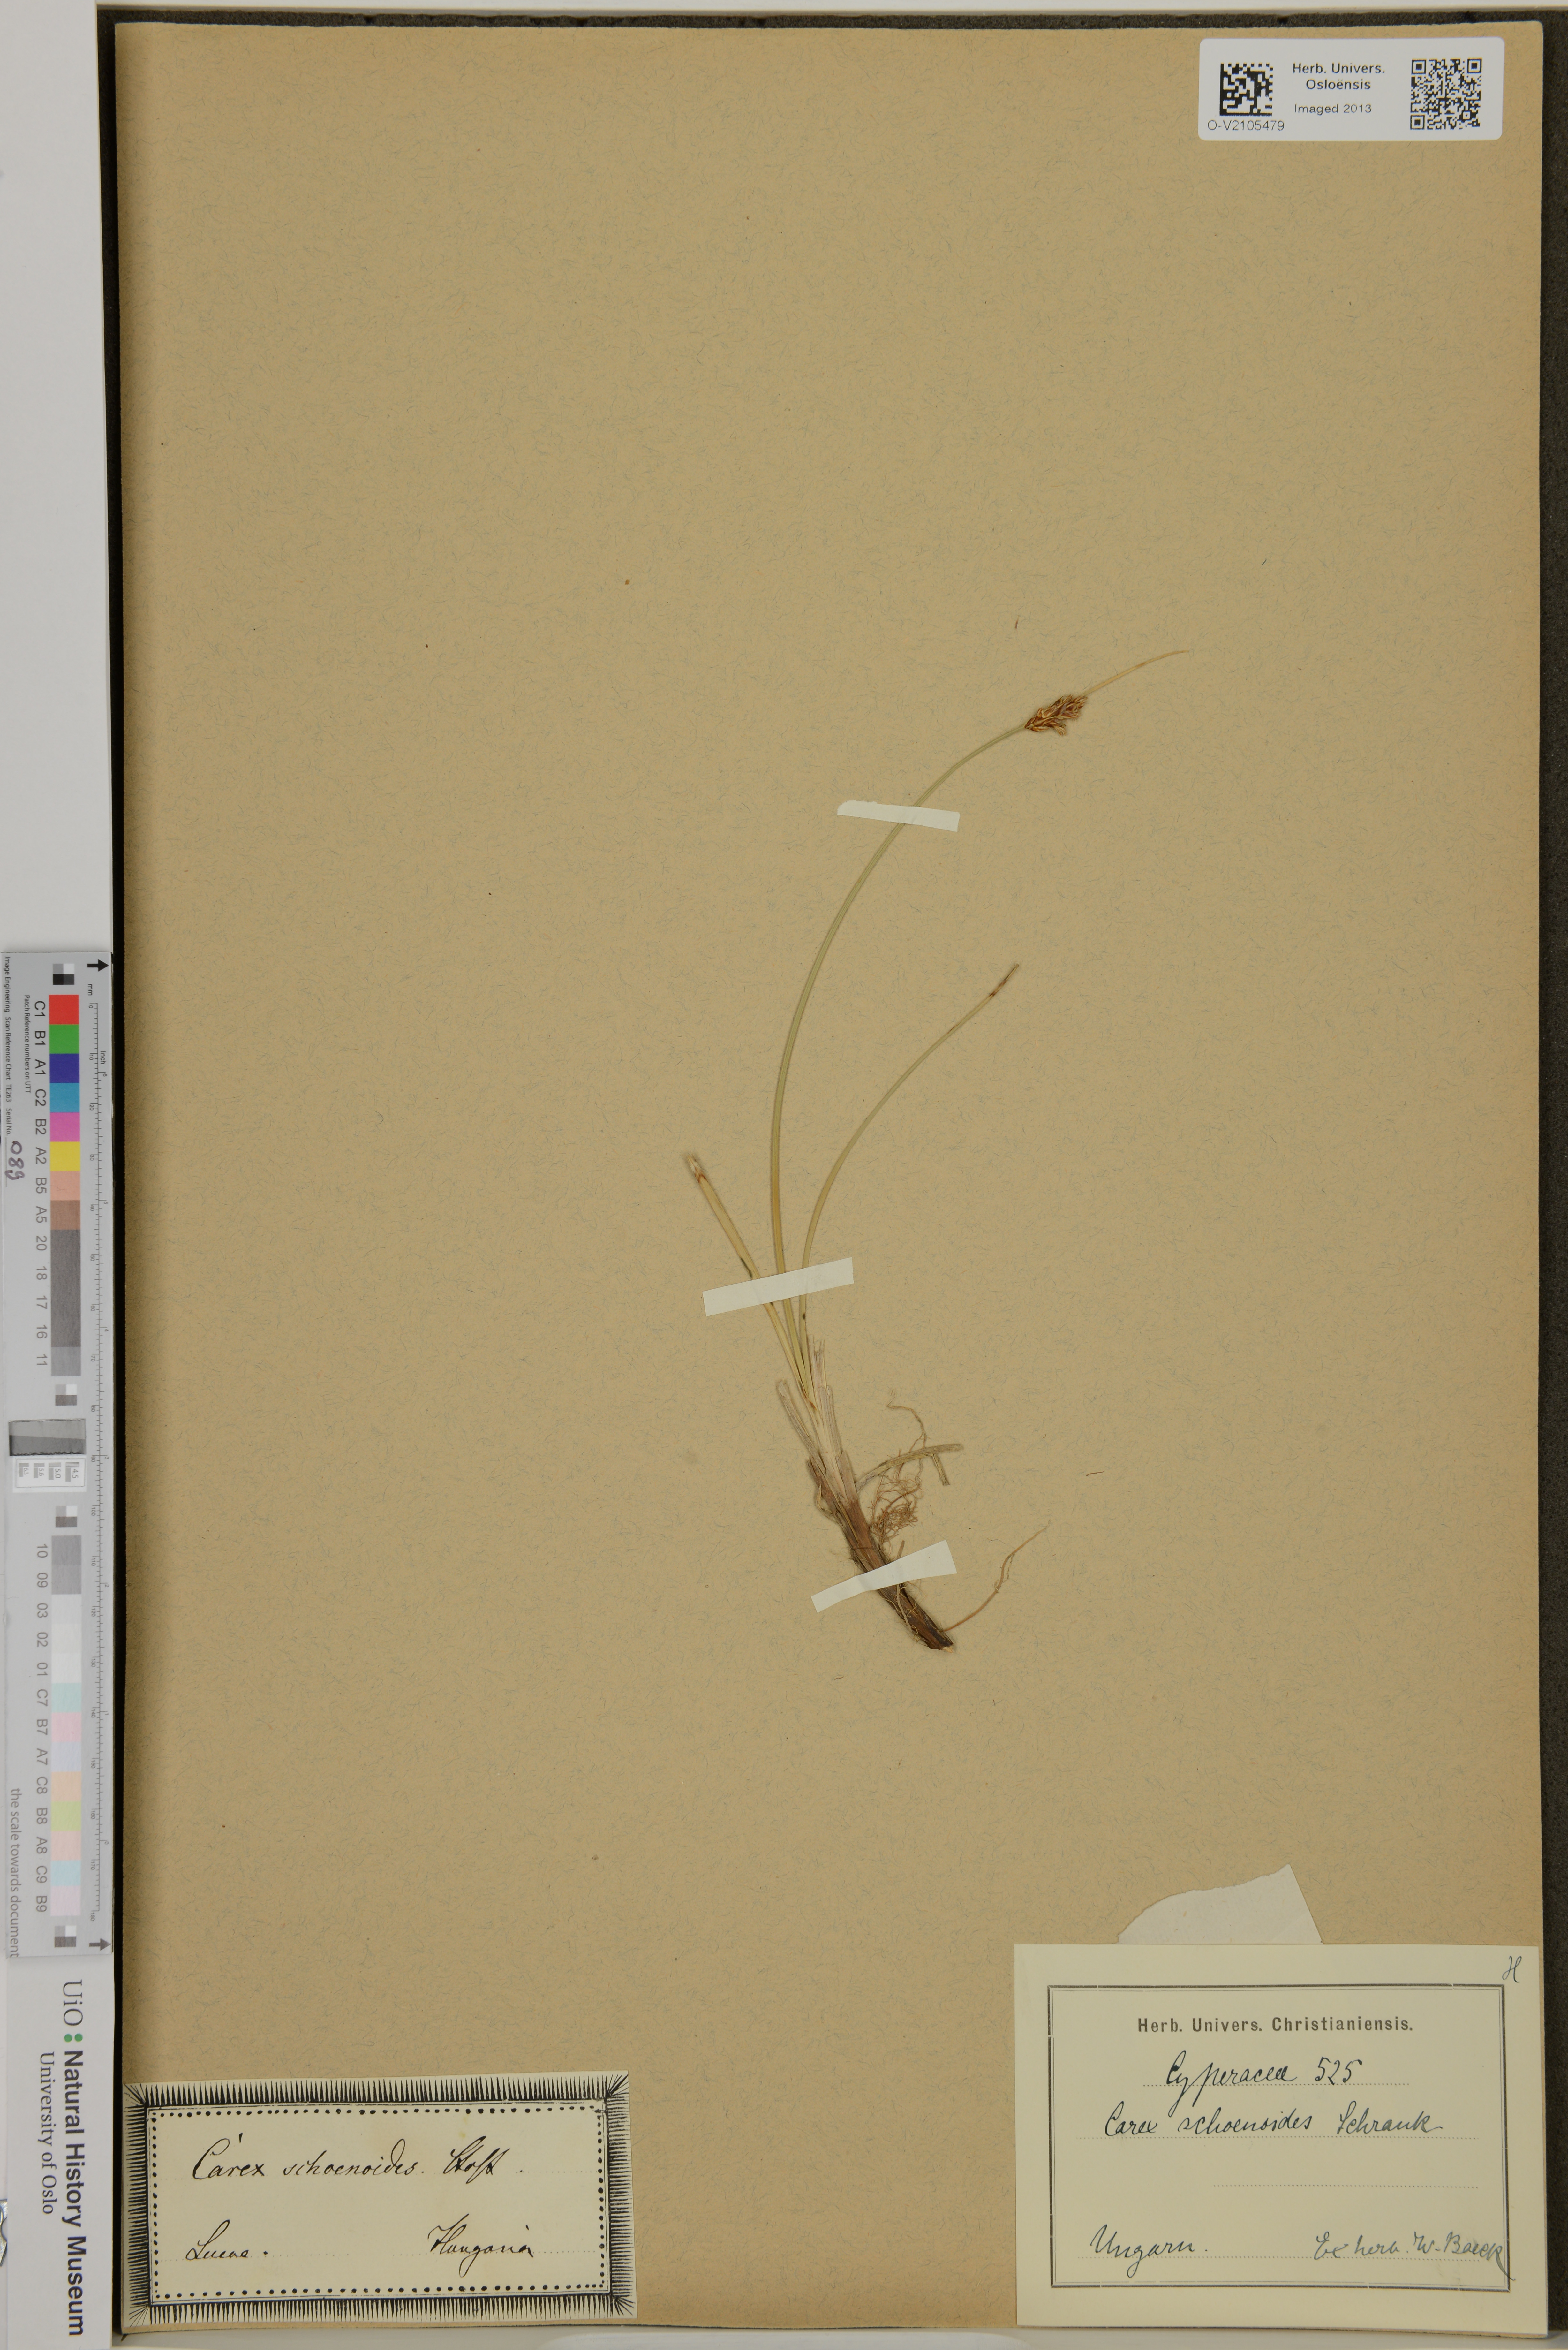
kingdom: Plantae
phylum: Tracheophyta
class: Liliopsida
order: Poales
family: Cyperaceae
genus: Carex
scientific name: Carex
